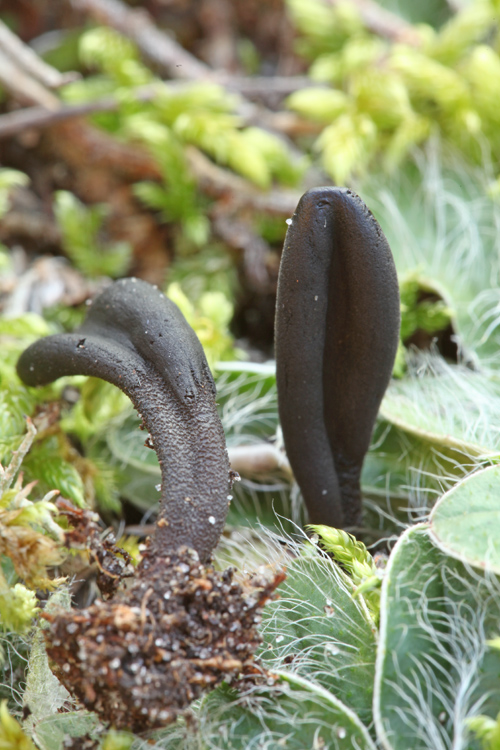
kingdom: Fungi
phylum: Ascomycota
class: Geoglossomycetes
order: Geoglossales
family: Geoglossaceae
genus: Hemileucoglossum
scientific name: Hemileucoglossum elongatum
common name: småsporet jordtunge
